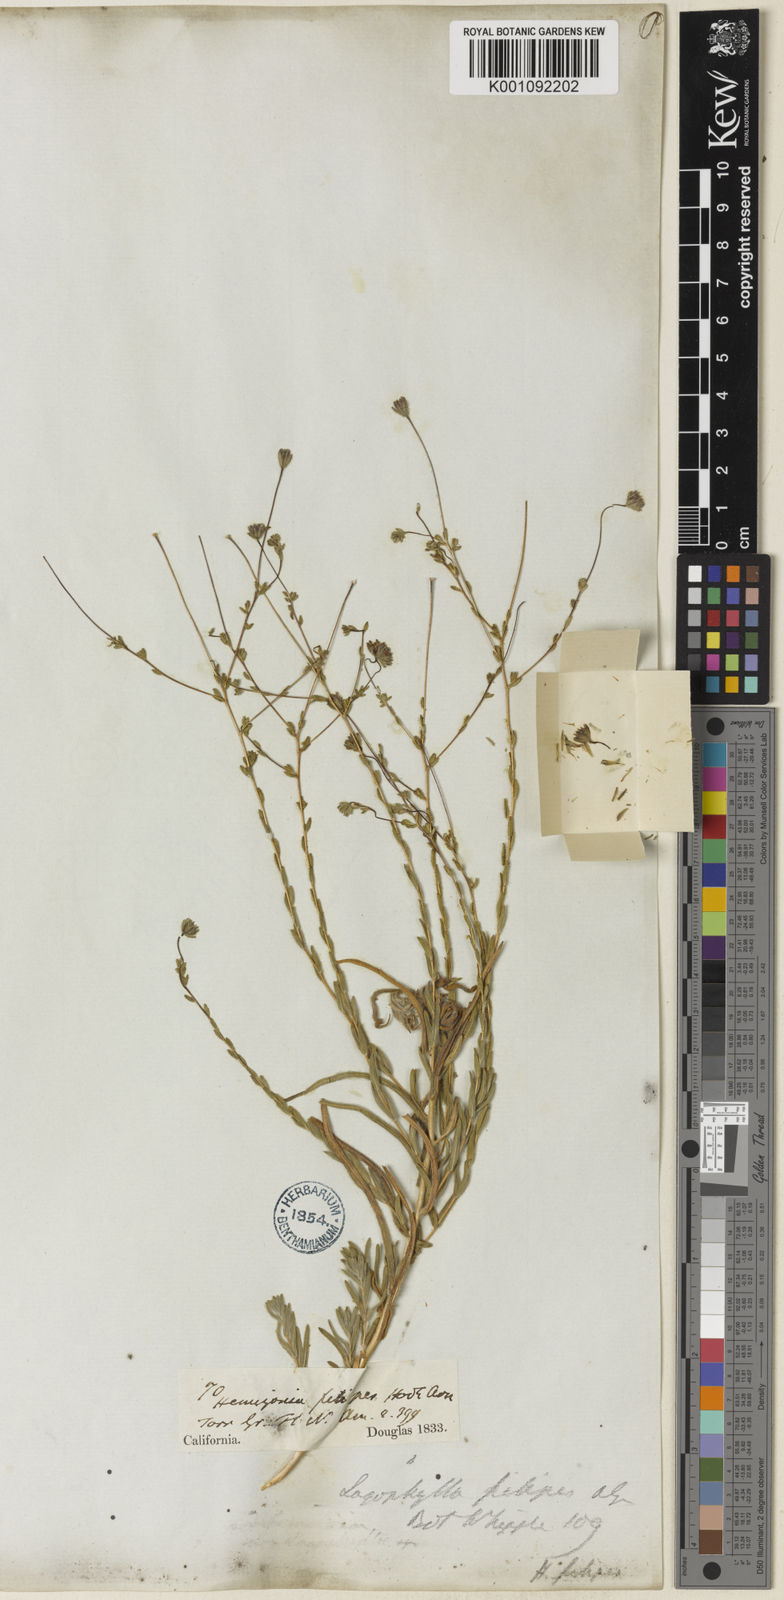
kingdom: Plantae
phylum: Tracheophyta
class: Magnoliopsida
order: Asterales
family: Asteraceae
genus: Holozonia
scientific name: Holozonia filipes
